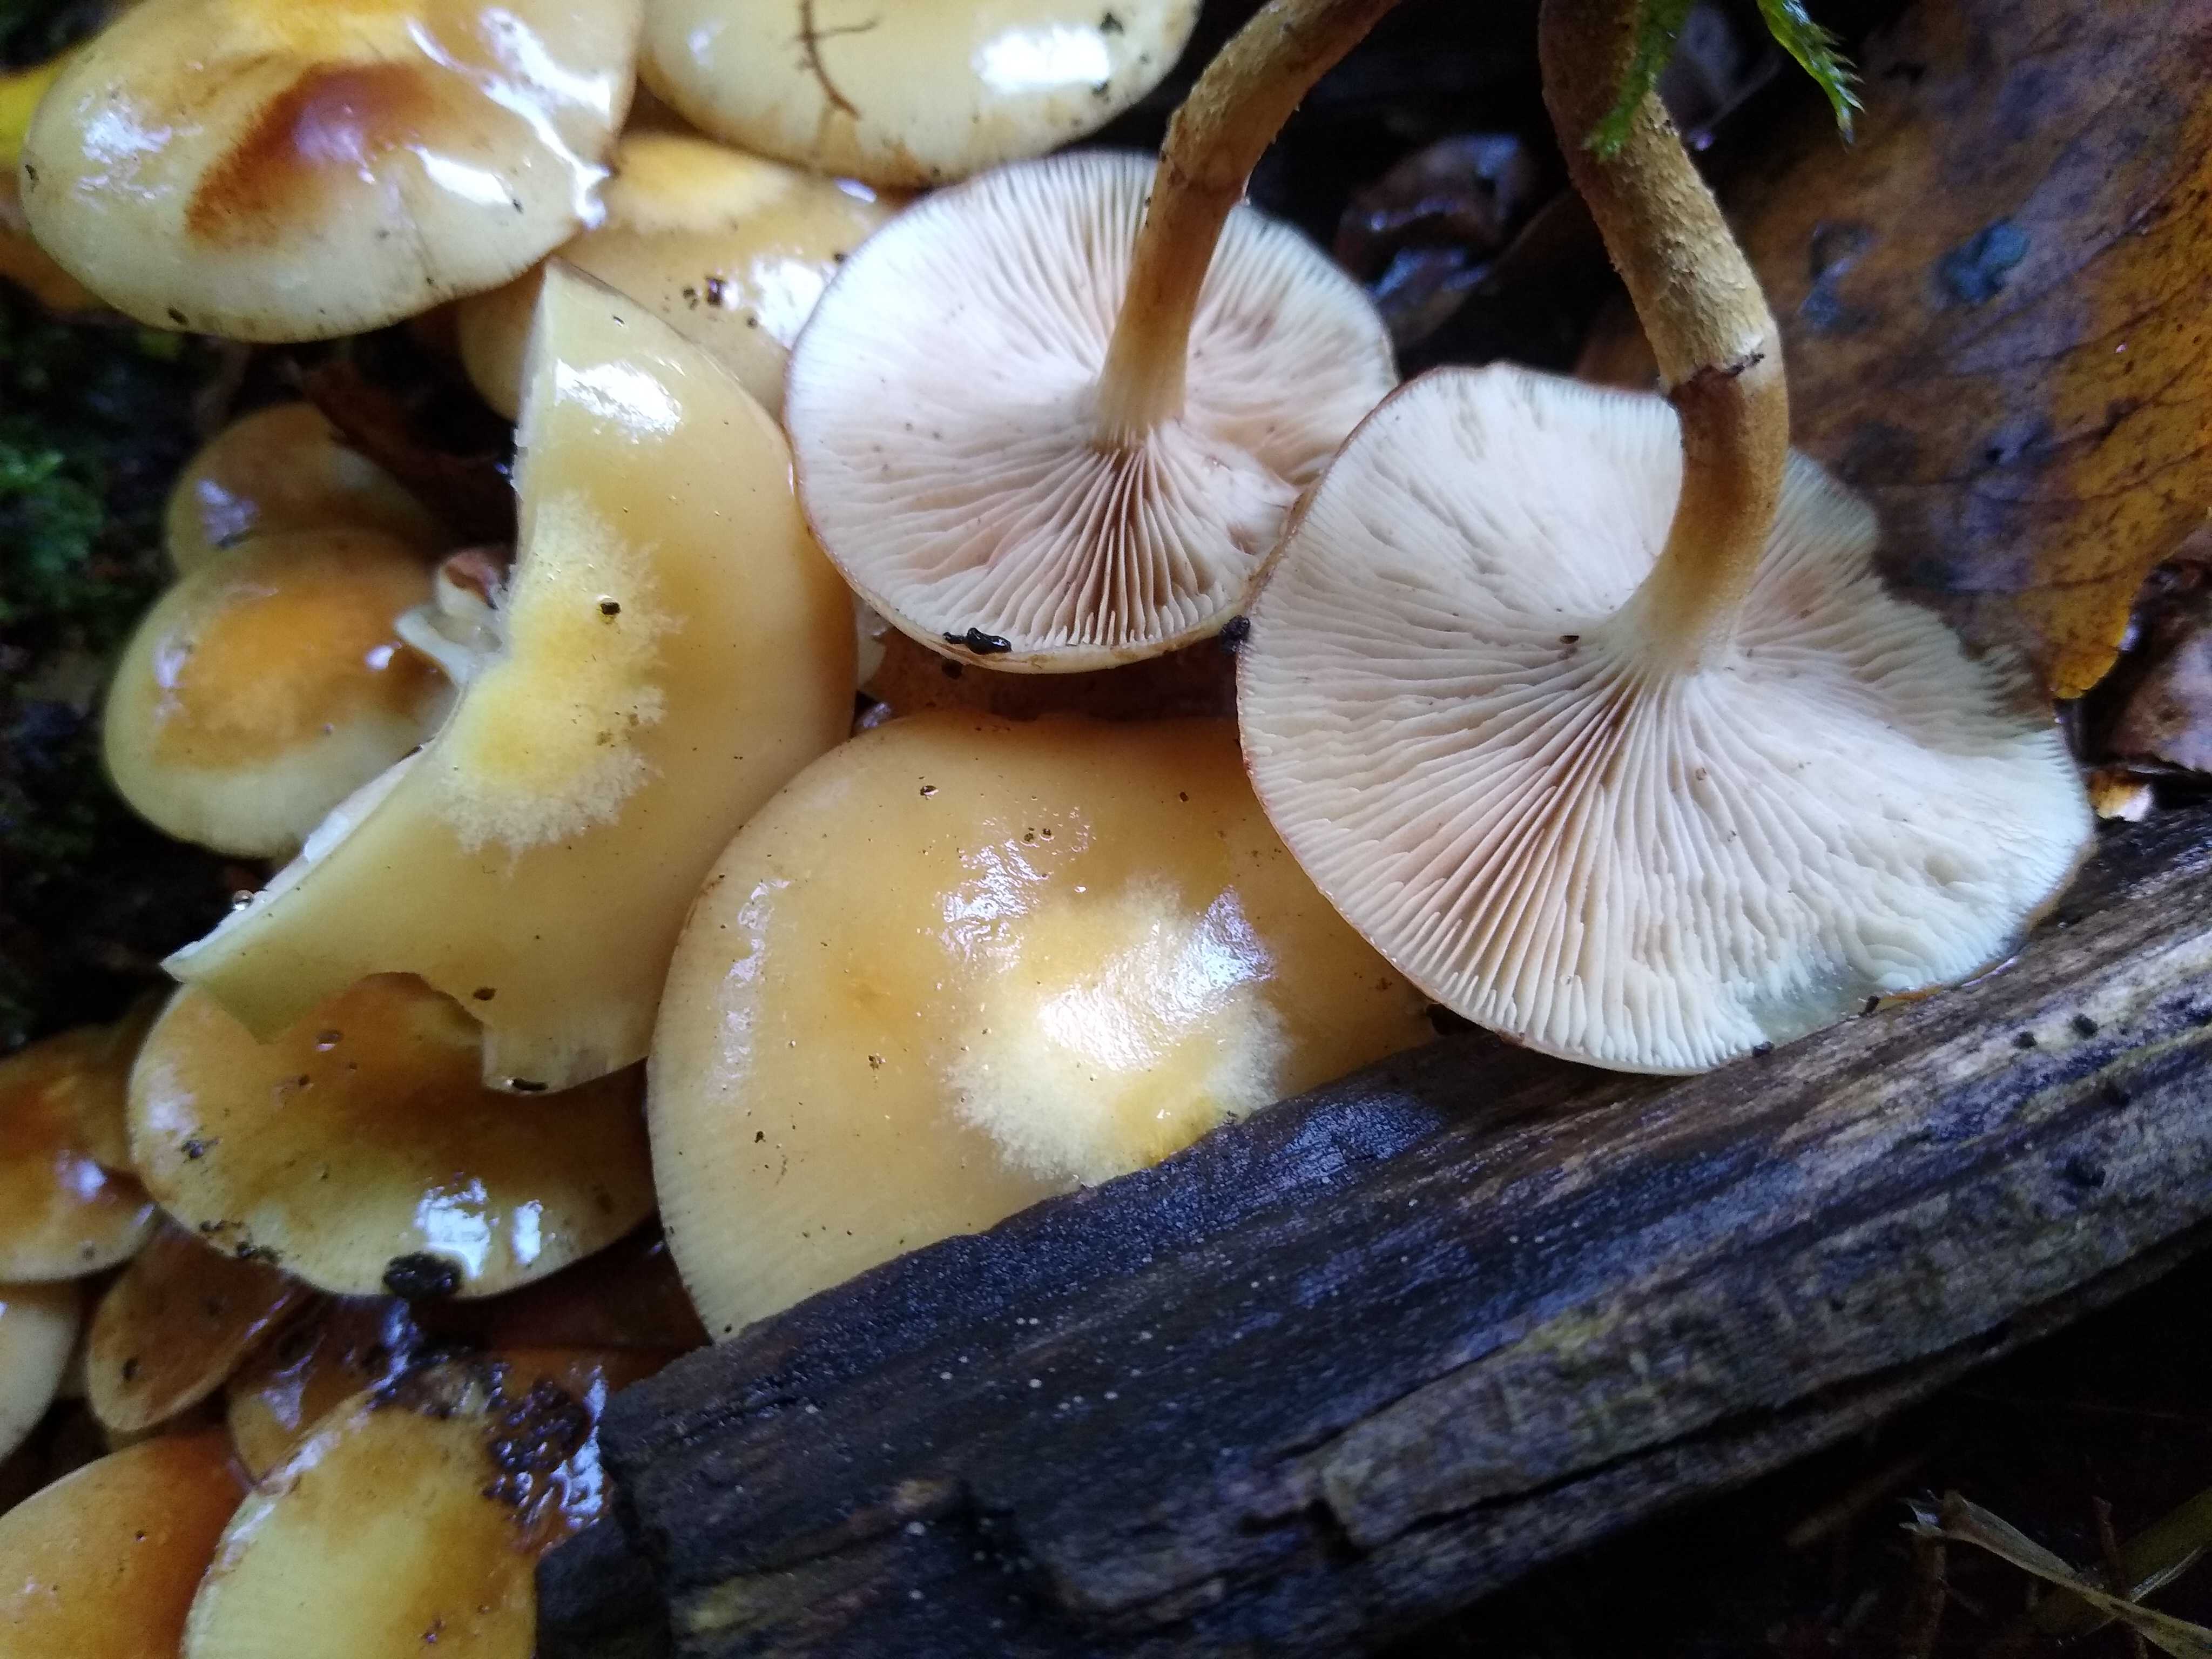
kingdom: Fungi
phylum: Basidiomycota
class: Agaricomycetes
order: Agaricales
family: Strophariaceae
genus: Kuehneromyces
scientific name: Kuehneromyces mutabilis
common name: foranderlig skælhat
